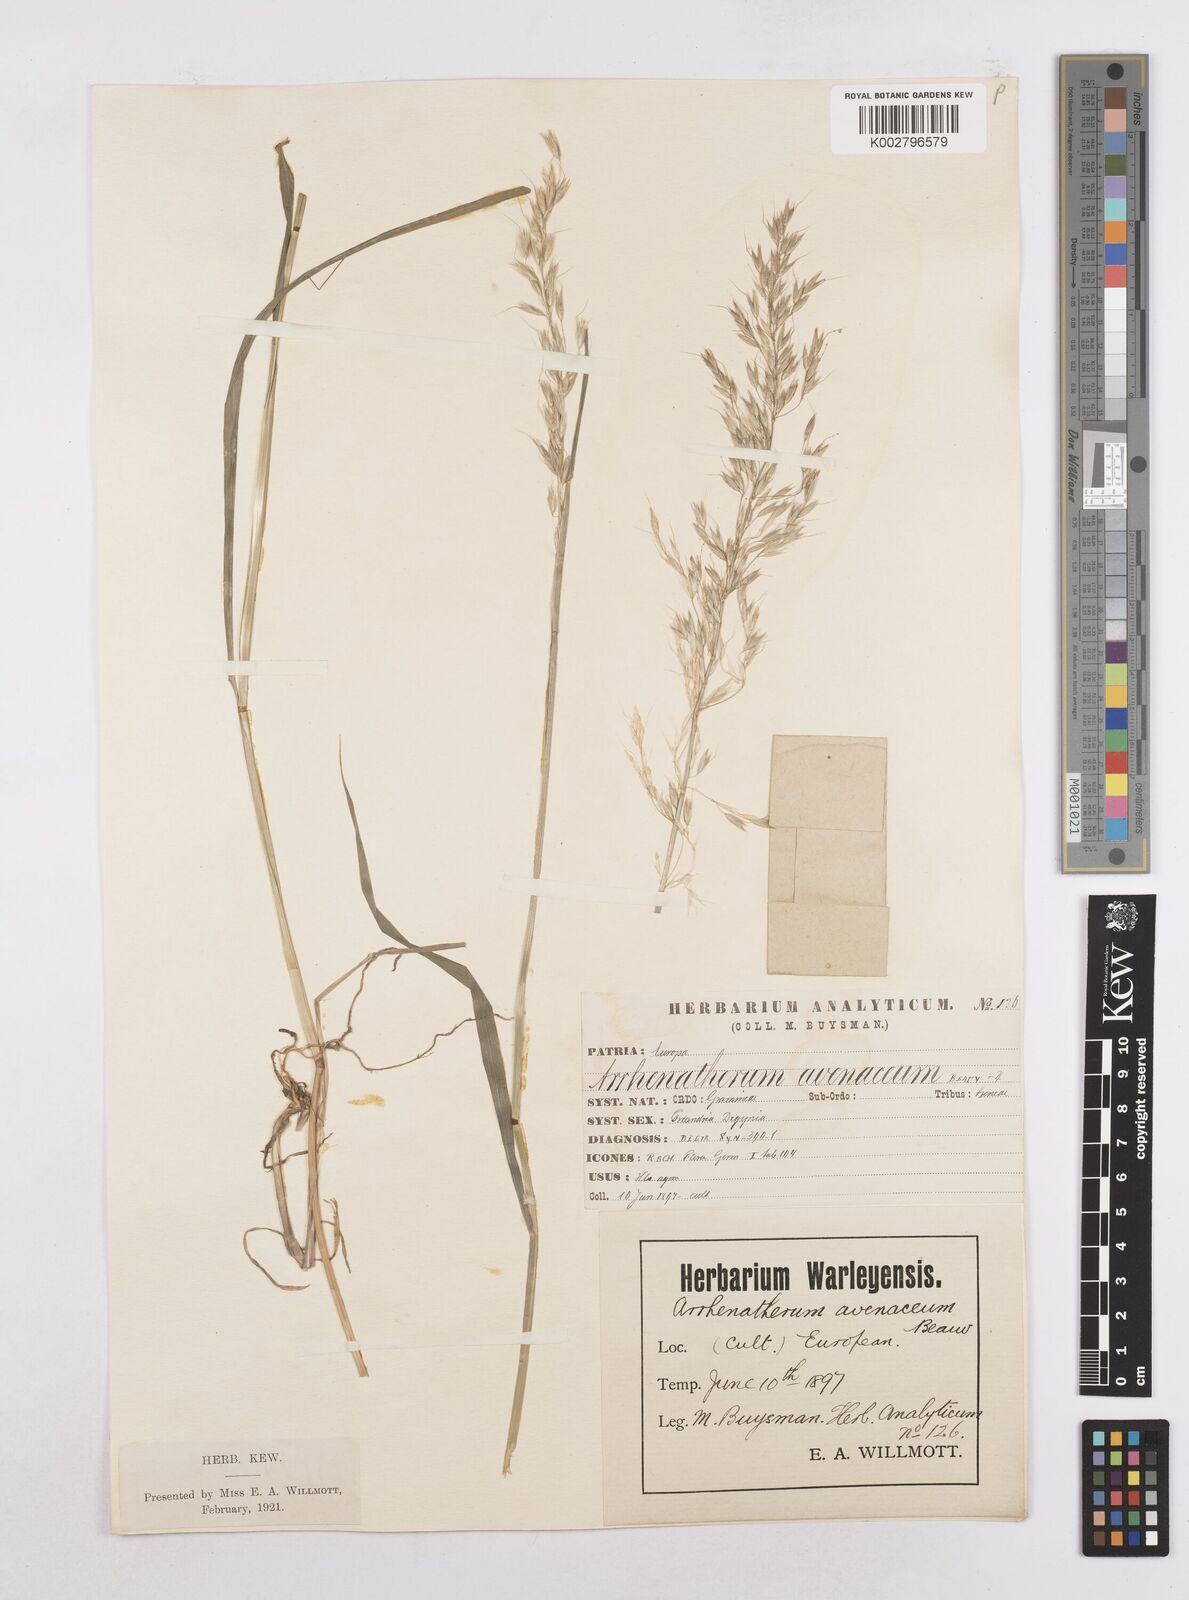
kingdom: Plantae
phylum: Tracheophyta
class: Liliopsida
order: Poales
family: Poaceae
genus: Arrhenatherum
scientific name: Arrhenatherum elatius
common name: Tall oatgrass
